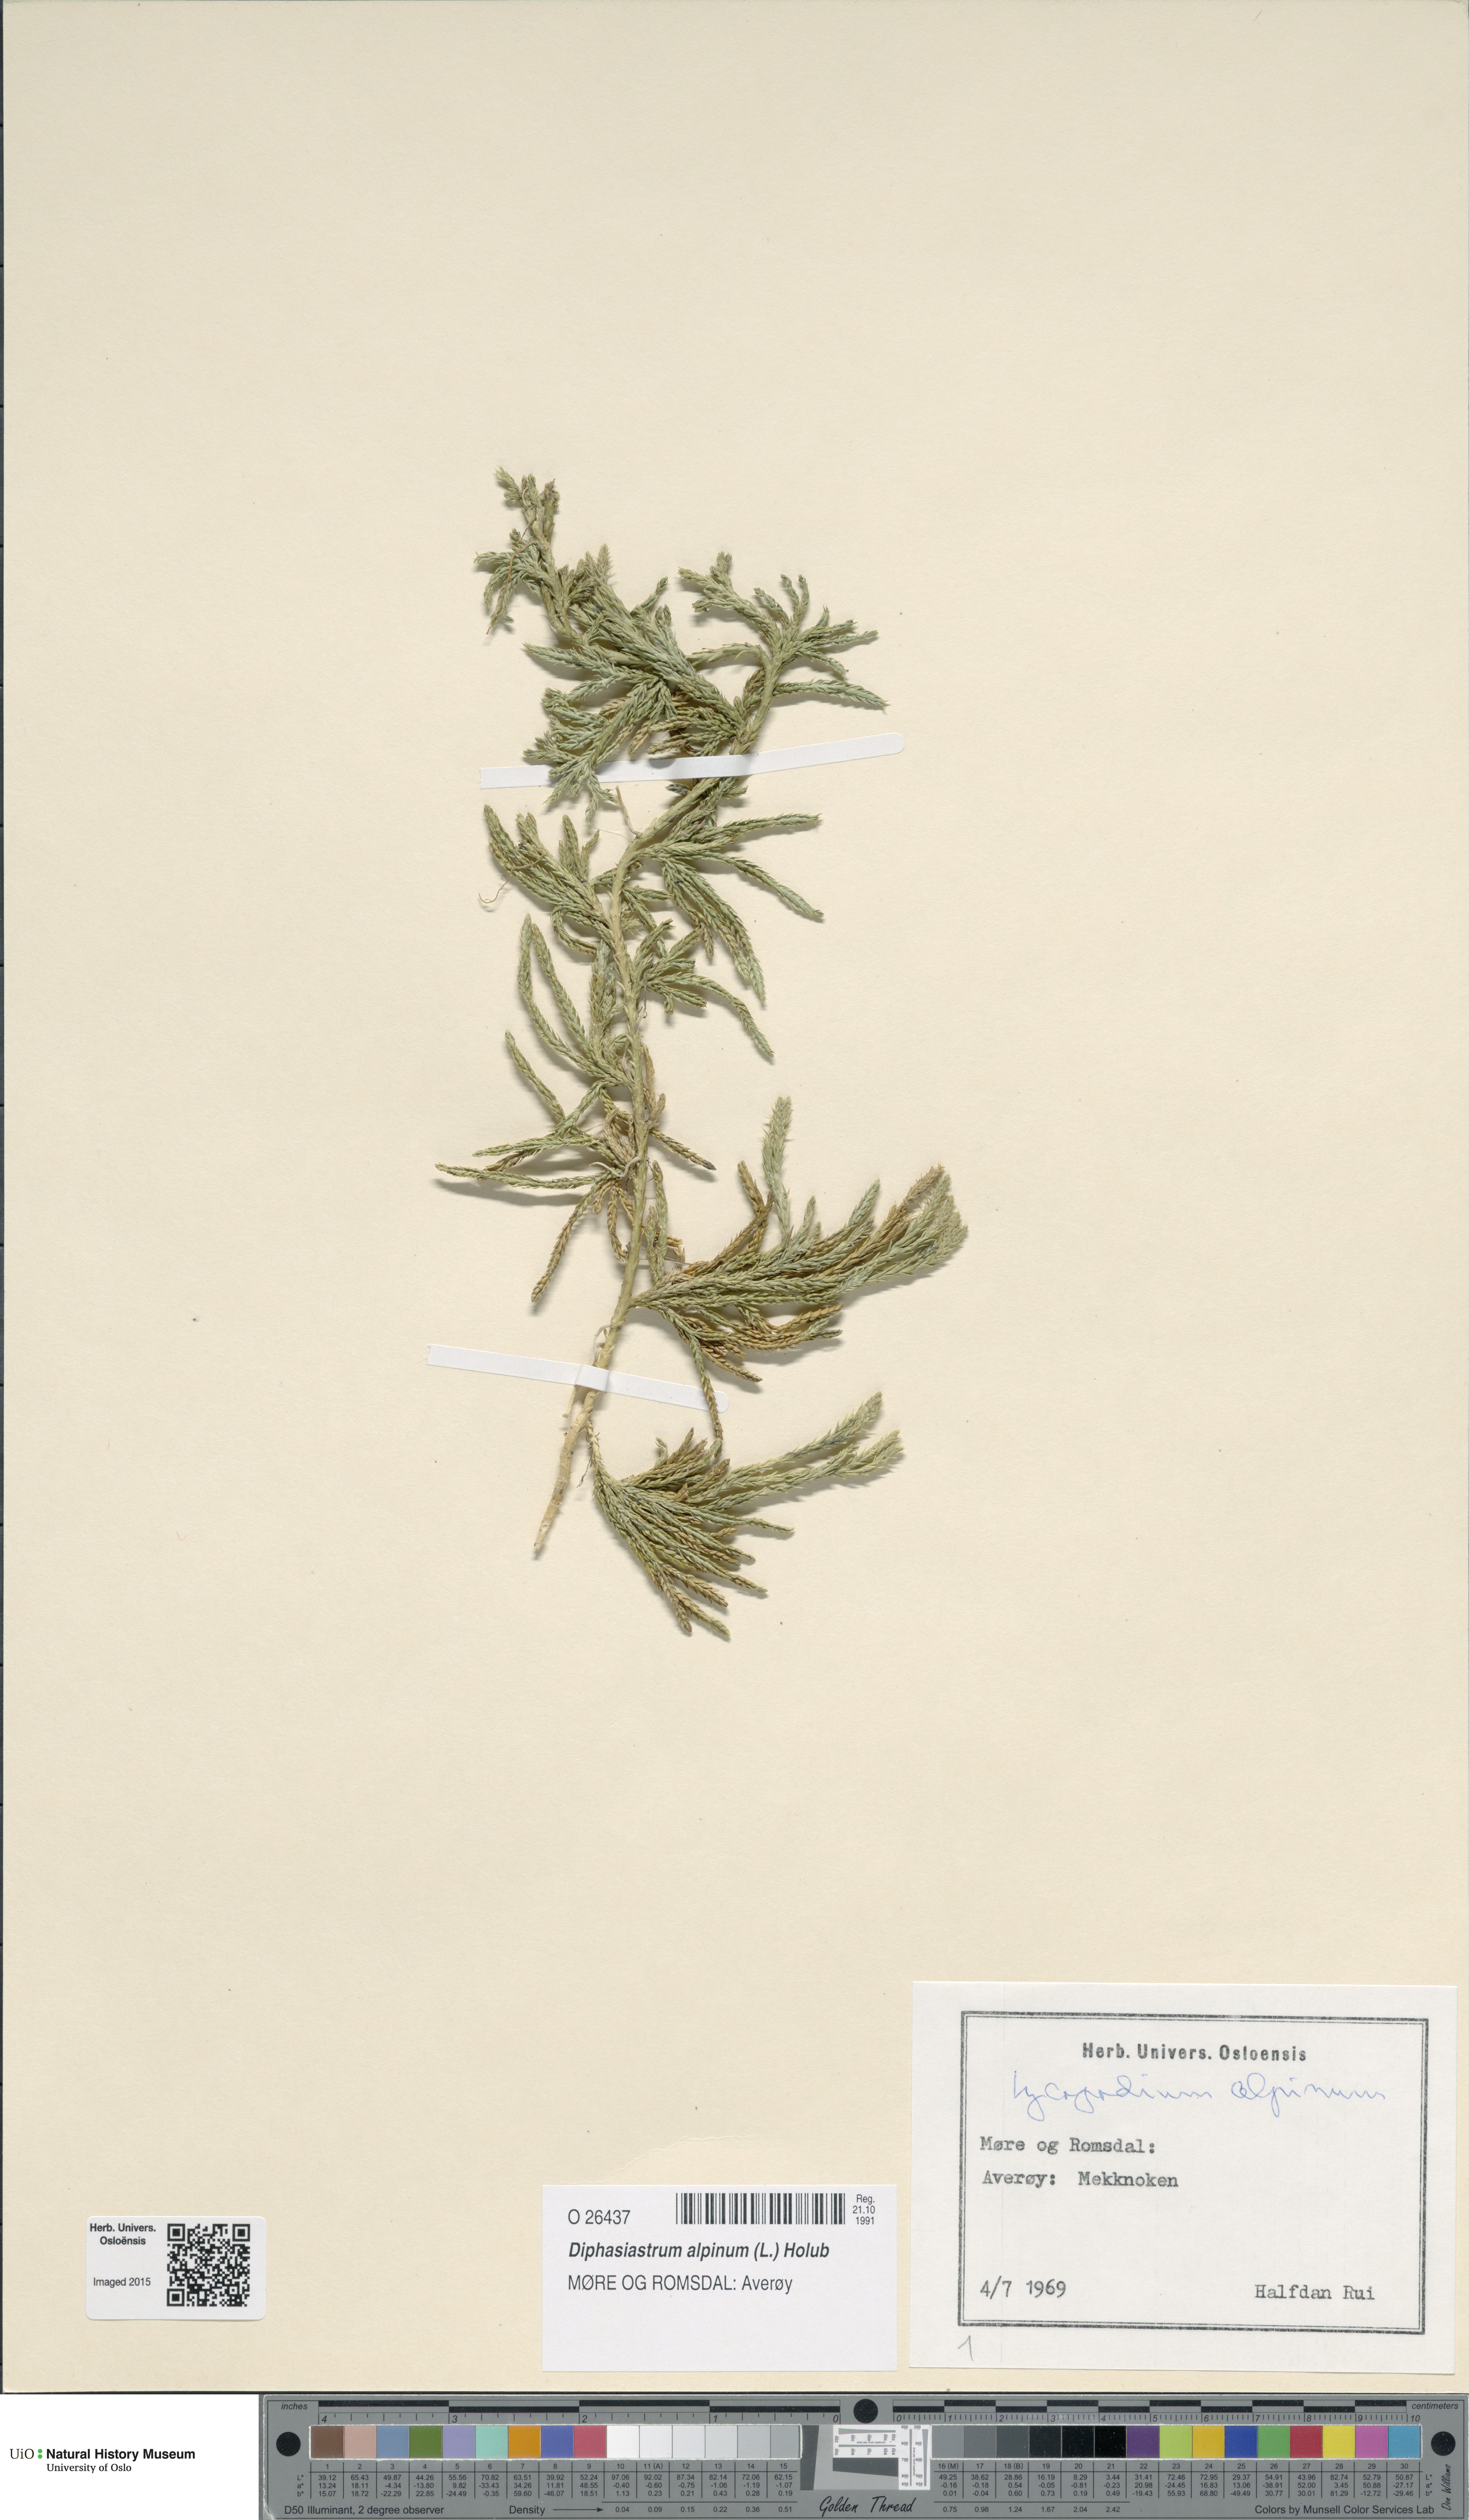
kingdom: Plantae
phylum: Tracheophyta
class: Lycopodiopsida
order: Lycopodiales
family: Lycopodiaceae
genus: Diphasiastrum
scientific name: Diphasiastrum alpinum
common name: Alpine clubmoss
